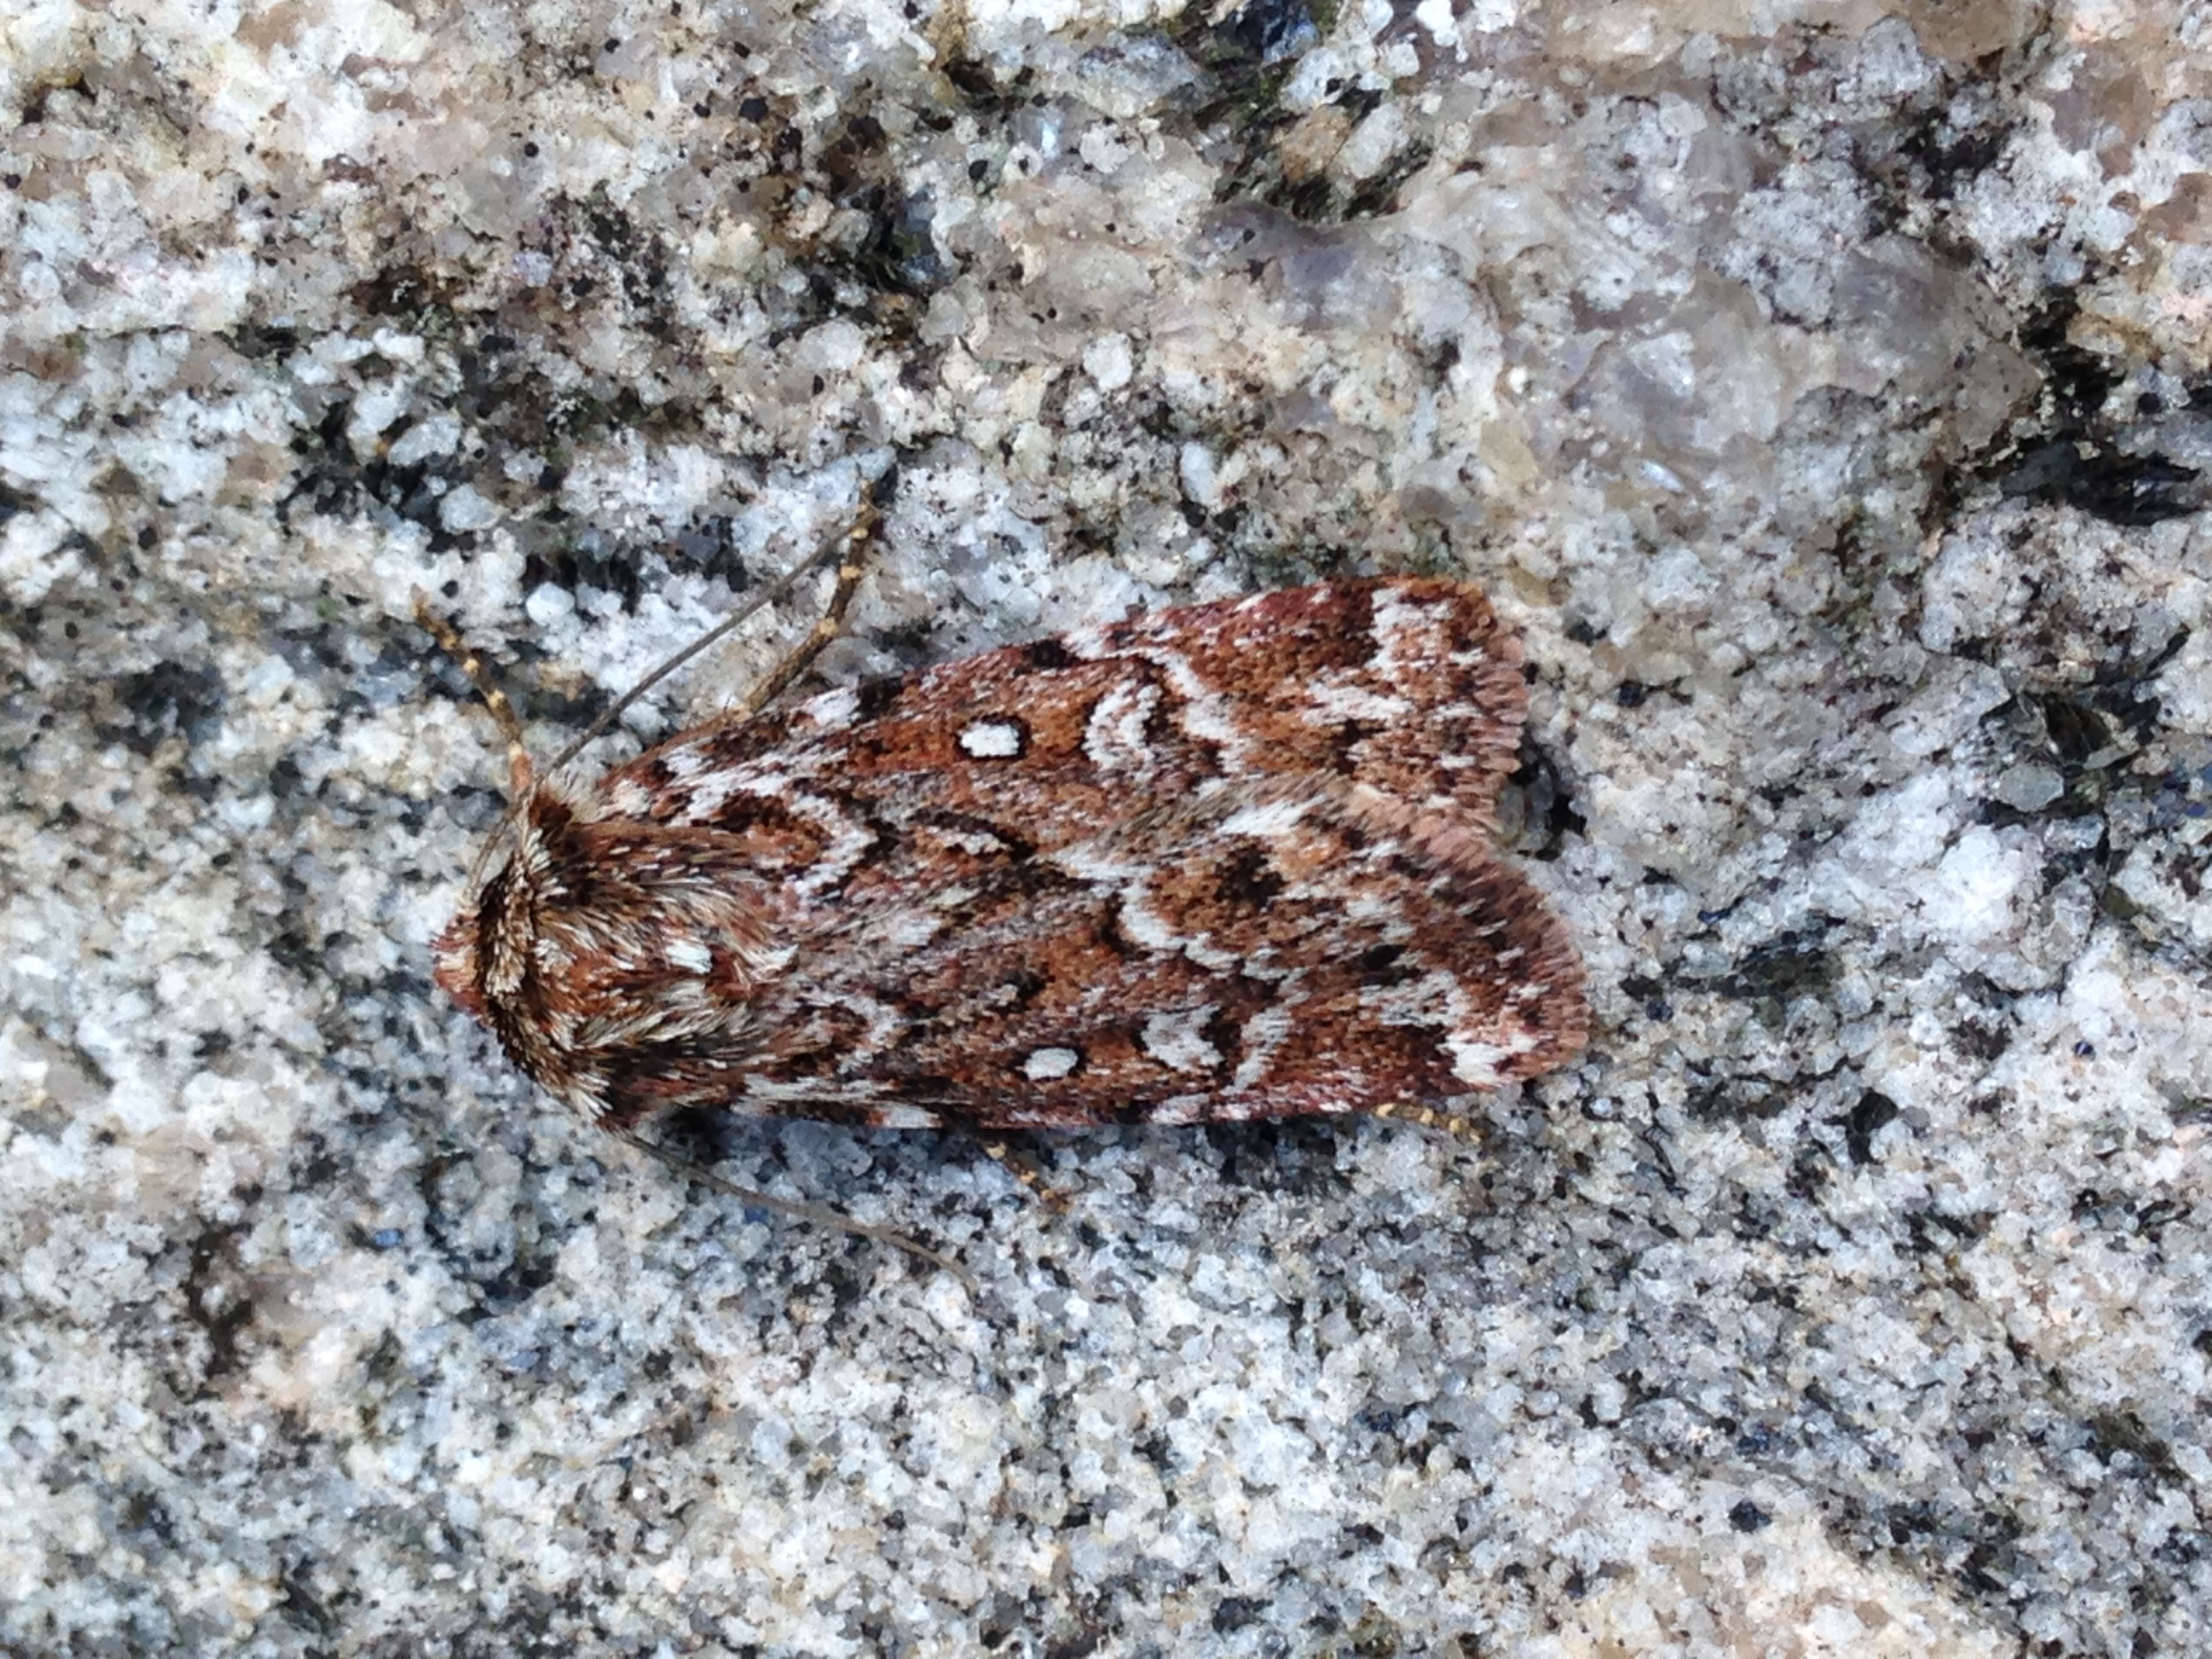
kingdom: Animalia
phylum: Arthropoda
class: Insecta
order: Lepidoptera
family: Noctuidae
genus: Lycophotia
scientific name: Lycophotia porphyrea
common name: True lover's knot
